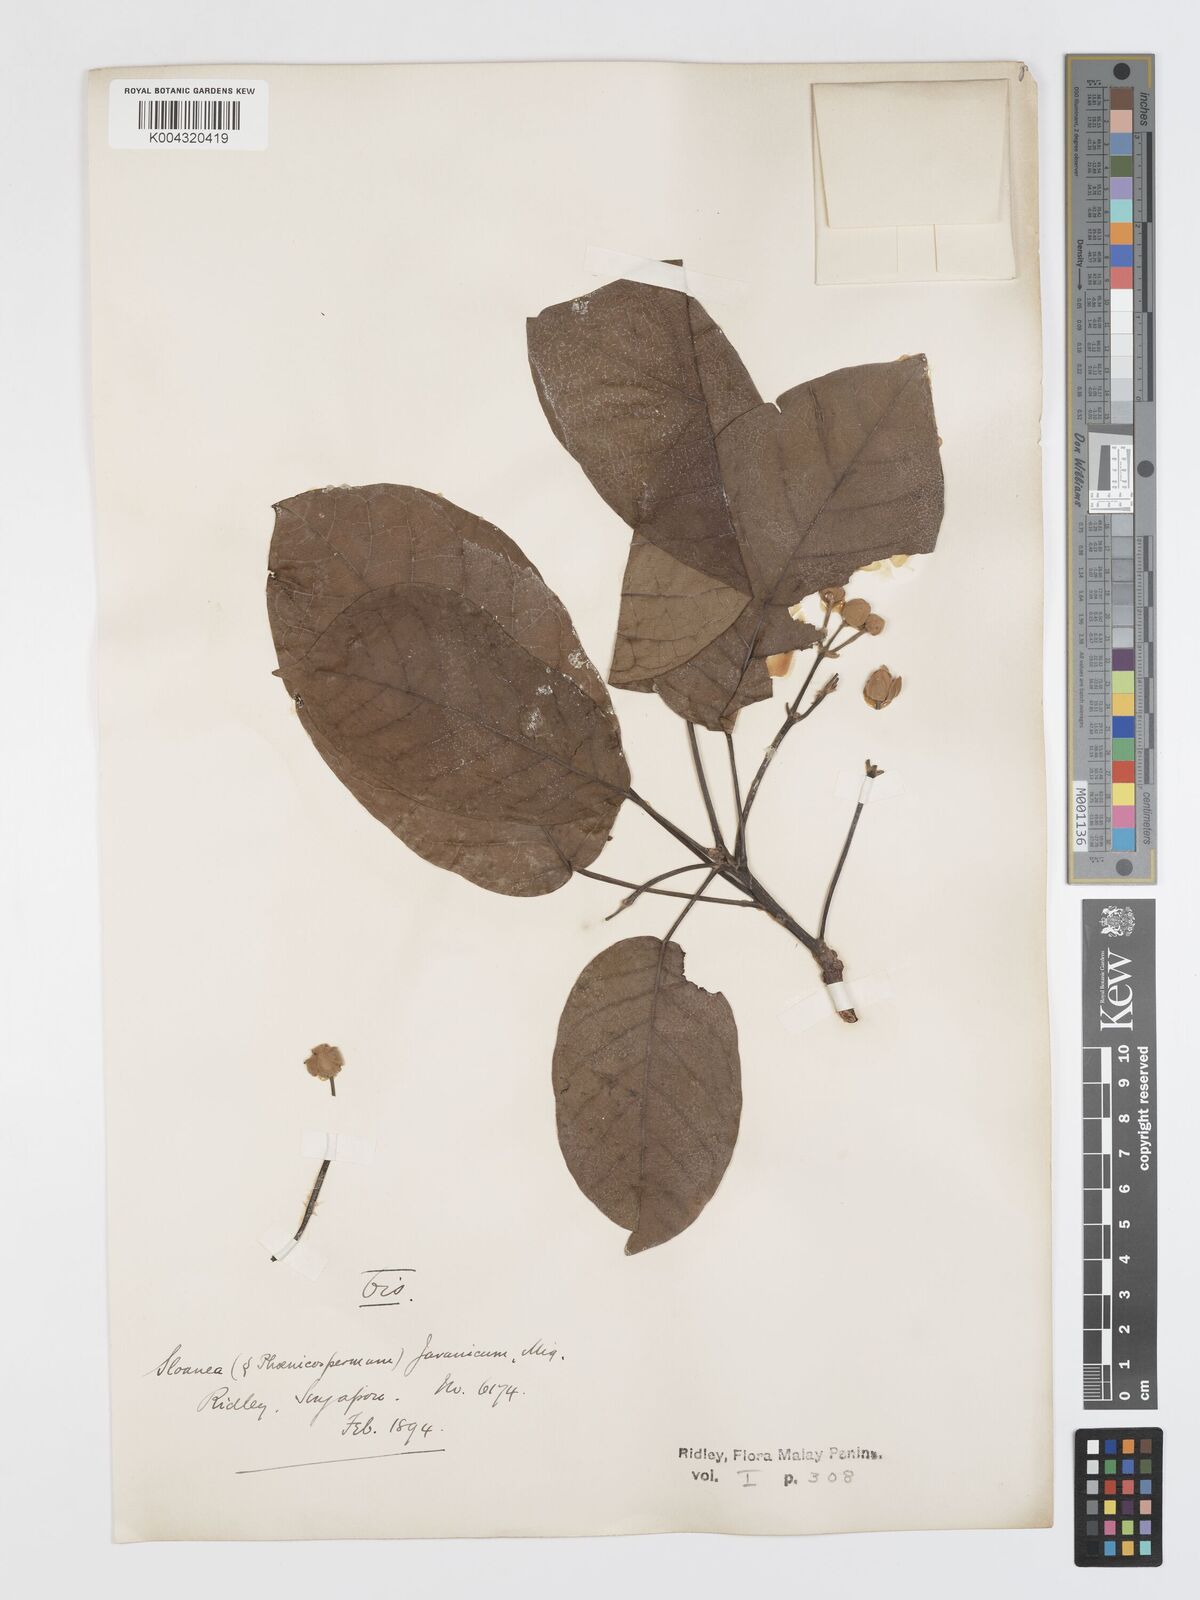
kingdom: Plantae
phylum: Tracheophyta
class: Magnoliopsida
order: Oxalidales
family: Elaeocarpaceae
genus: Sloanea
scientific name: Sloanea javanica
